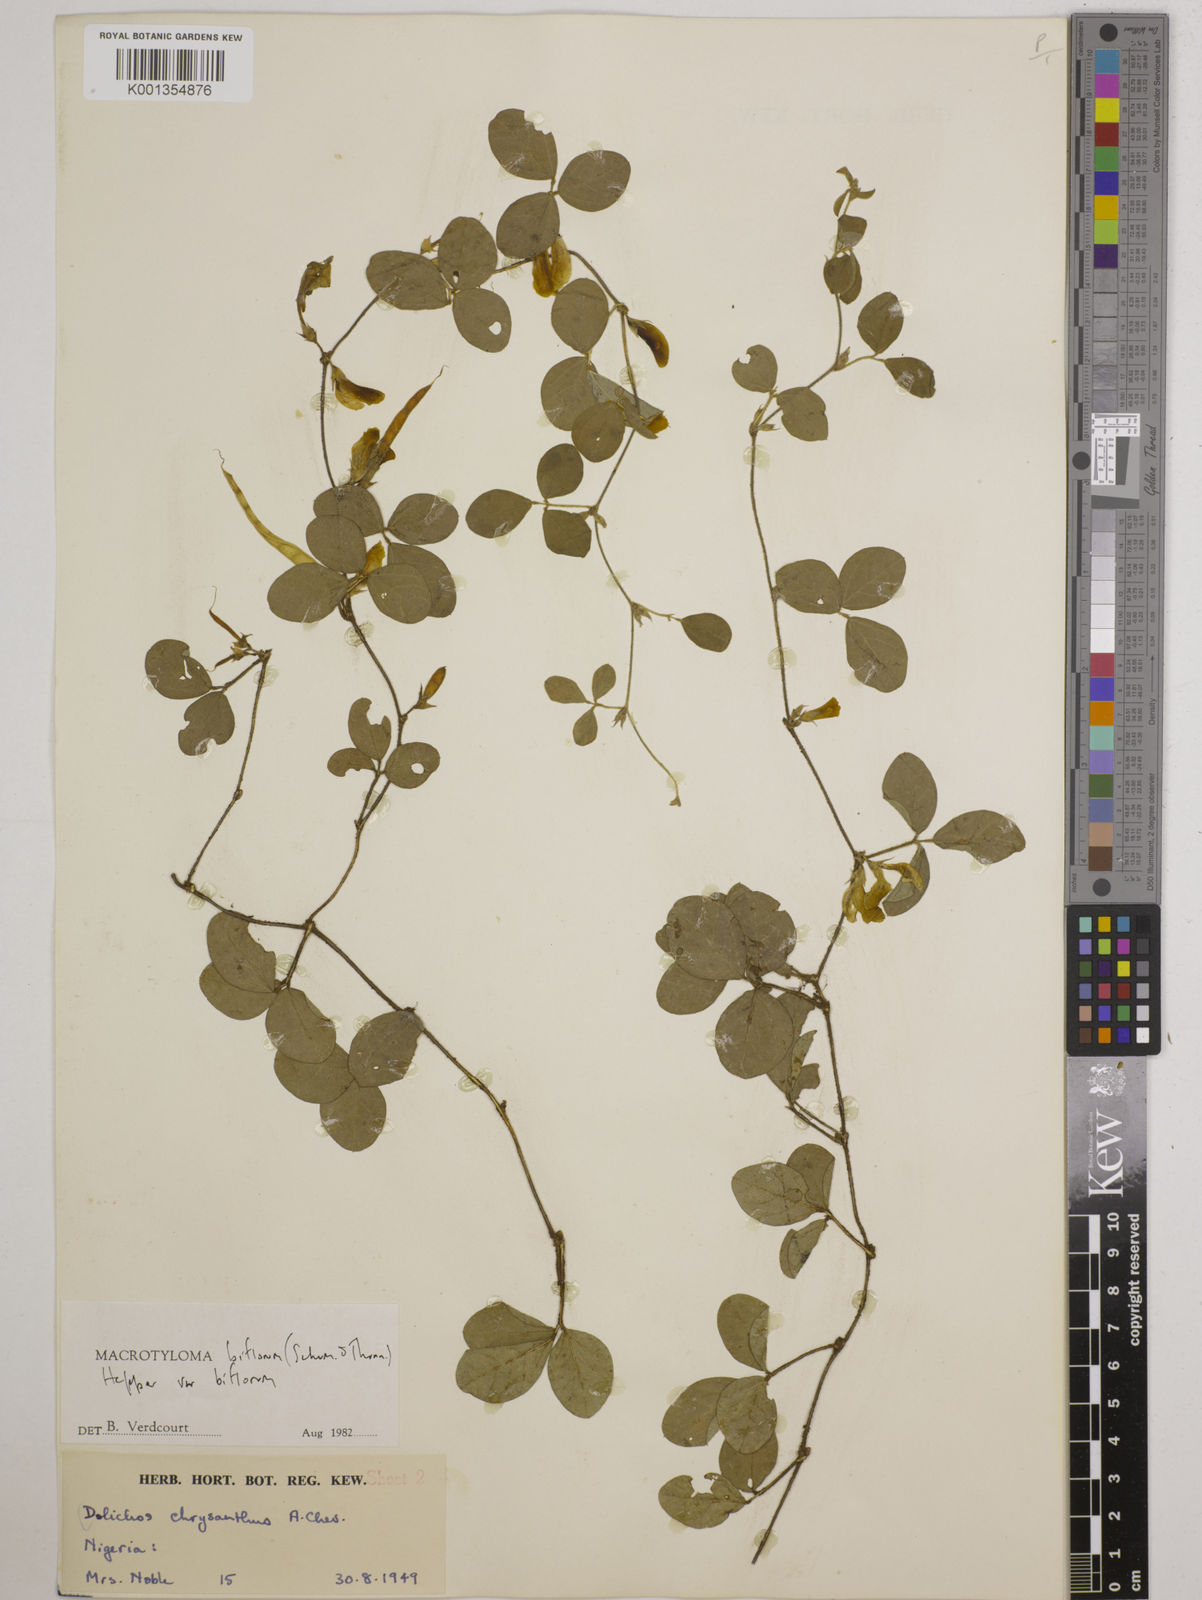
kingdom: Plantae
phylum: Tracheophyta
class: Magnoliopsida
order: Fabales
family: Fabaceae
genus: Macrotyloma
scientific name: Macrotyloma biflorum
